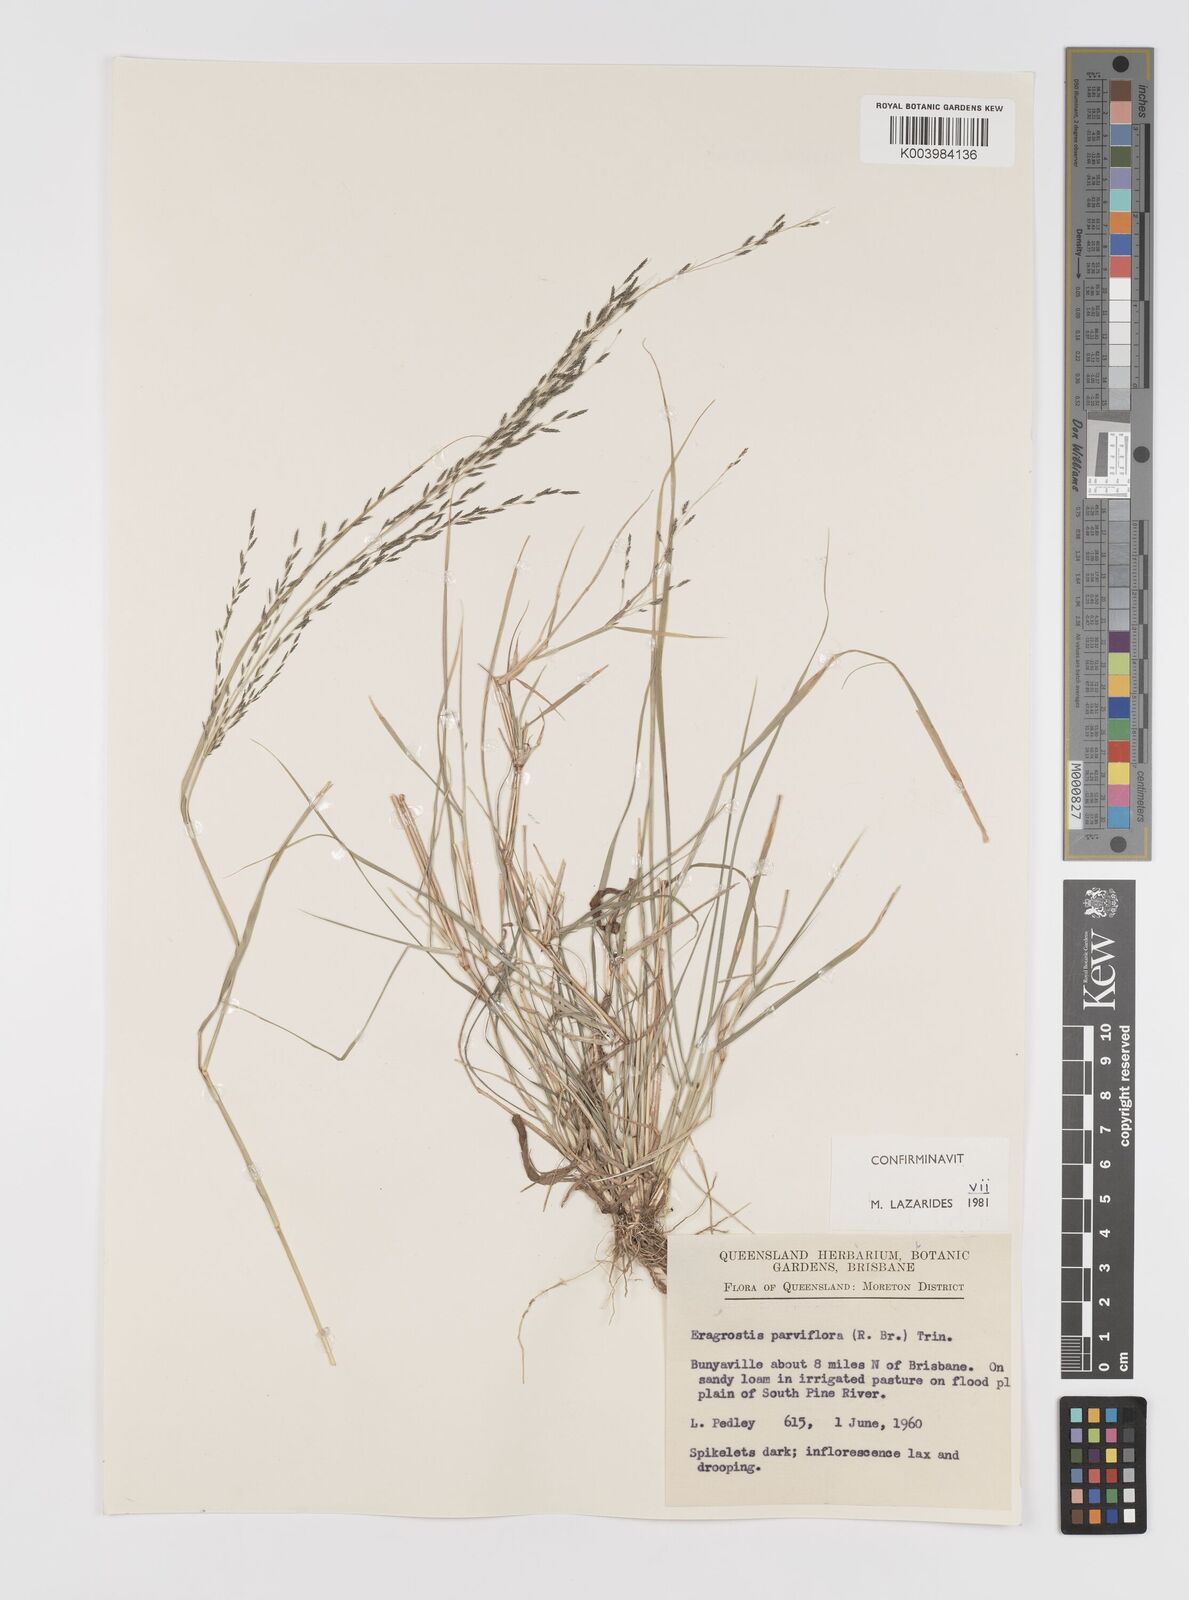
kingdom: Plantae
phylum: Tracheophyta
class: Liliopsida
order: Poales
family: Poaceae
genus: Eragrostis
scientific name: Eragrostis parviflora
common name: Weeping love-grass
